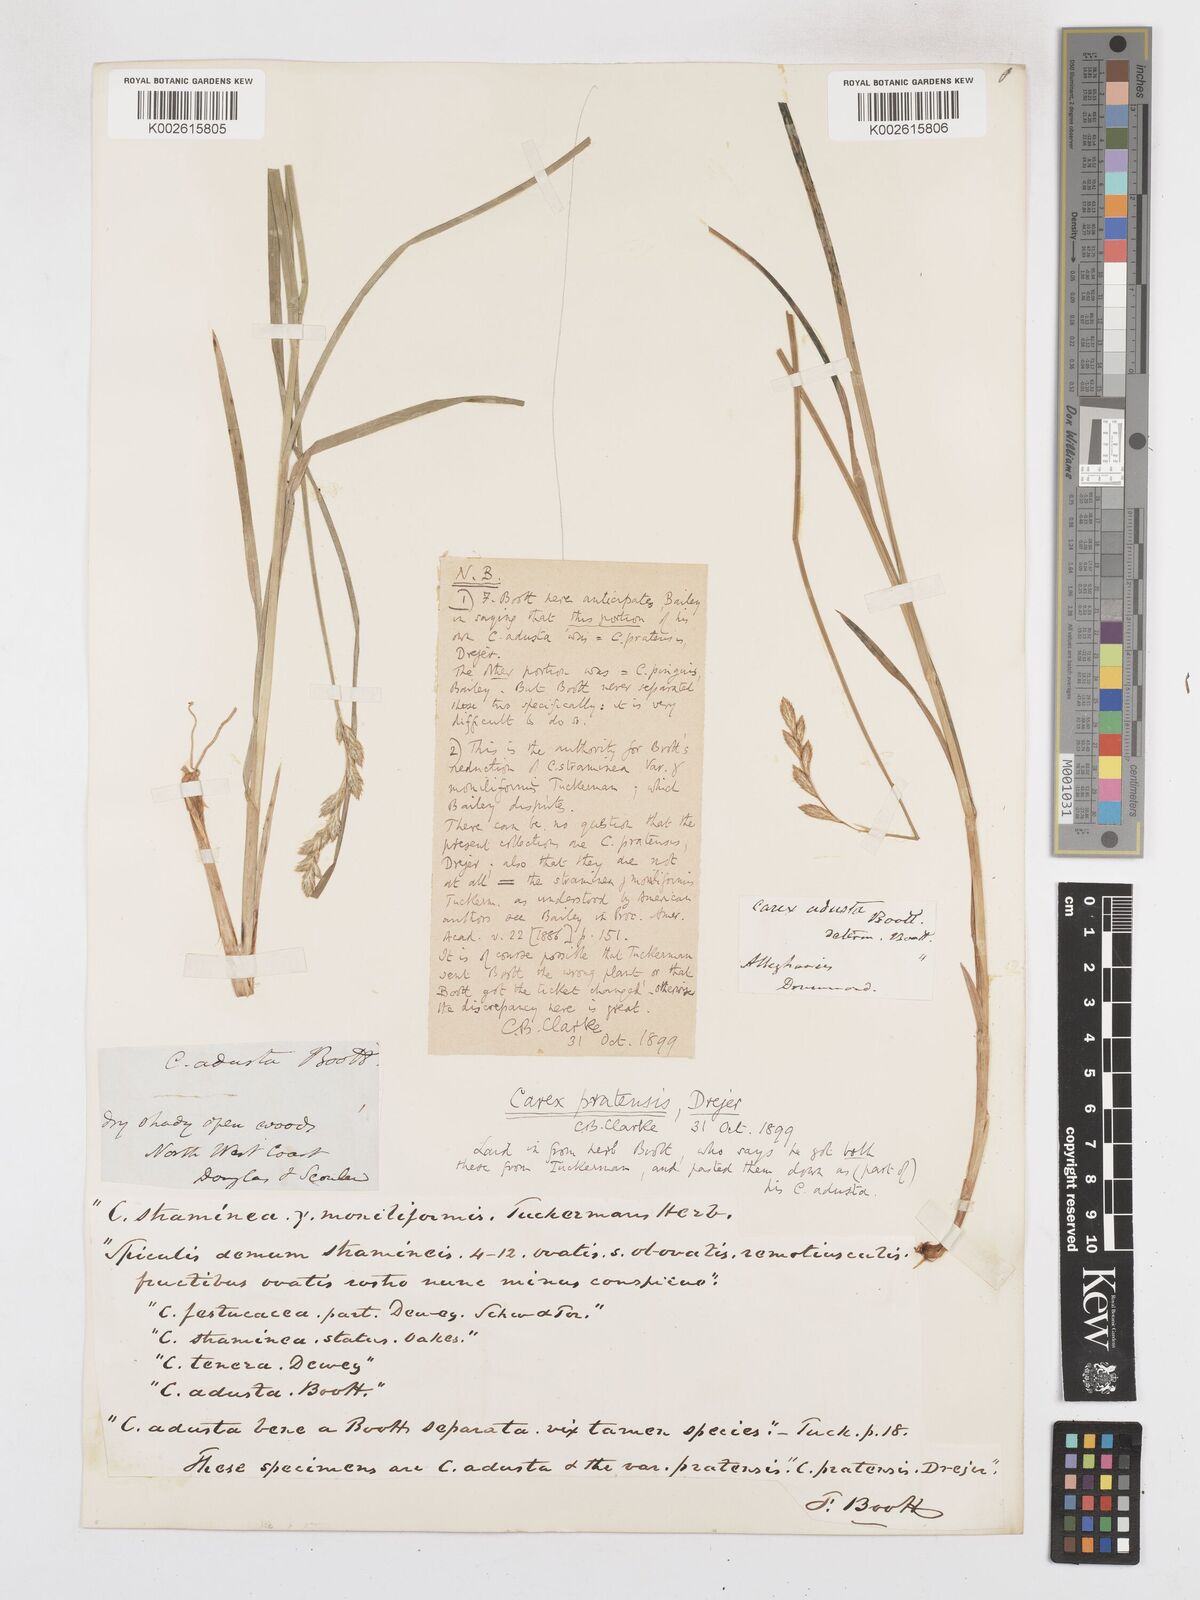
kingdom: Plantae
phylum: Tracheophyta
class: Liliopsida
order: Poales
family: Cyperaceae
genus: Carex
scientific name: Carex praticola
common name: Large-fruited oval sedge
